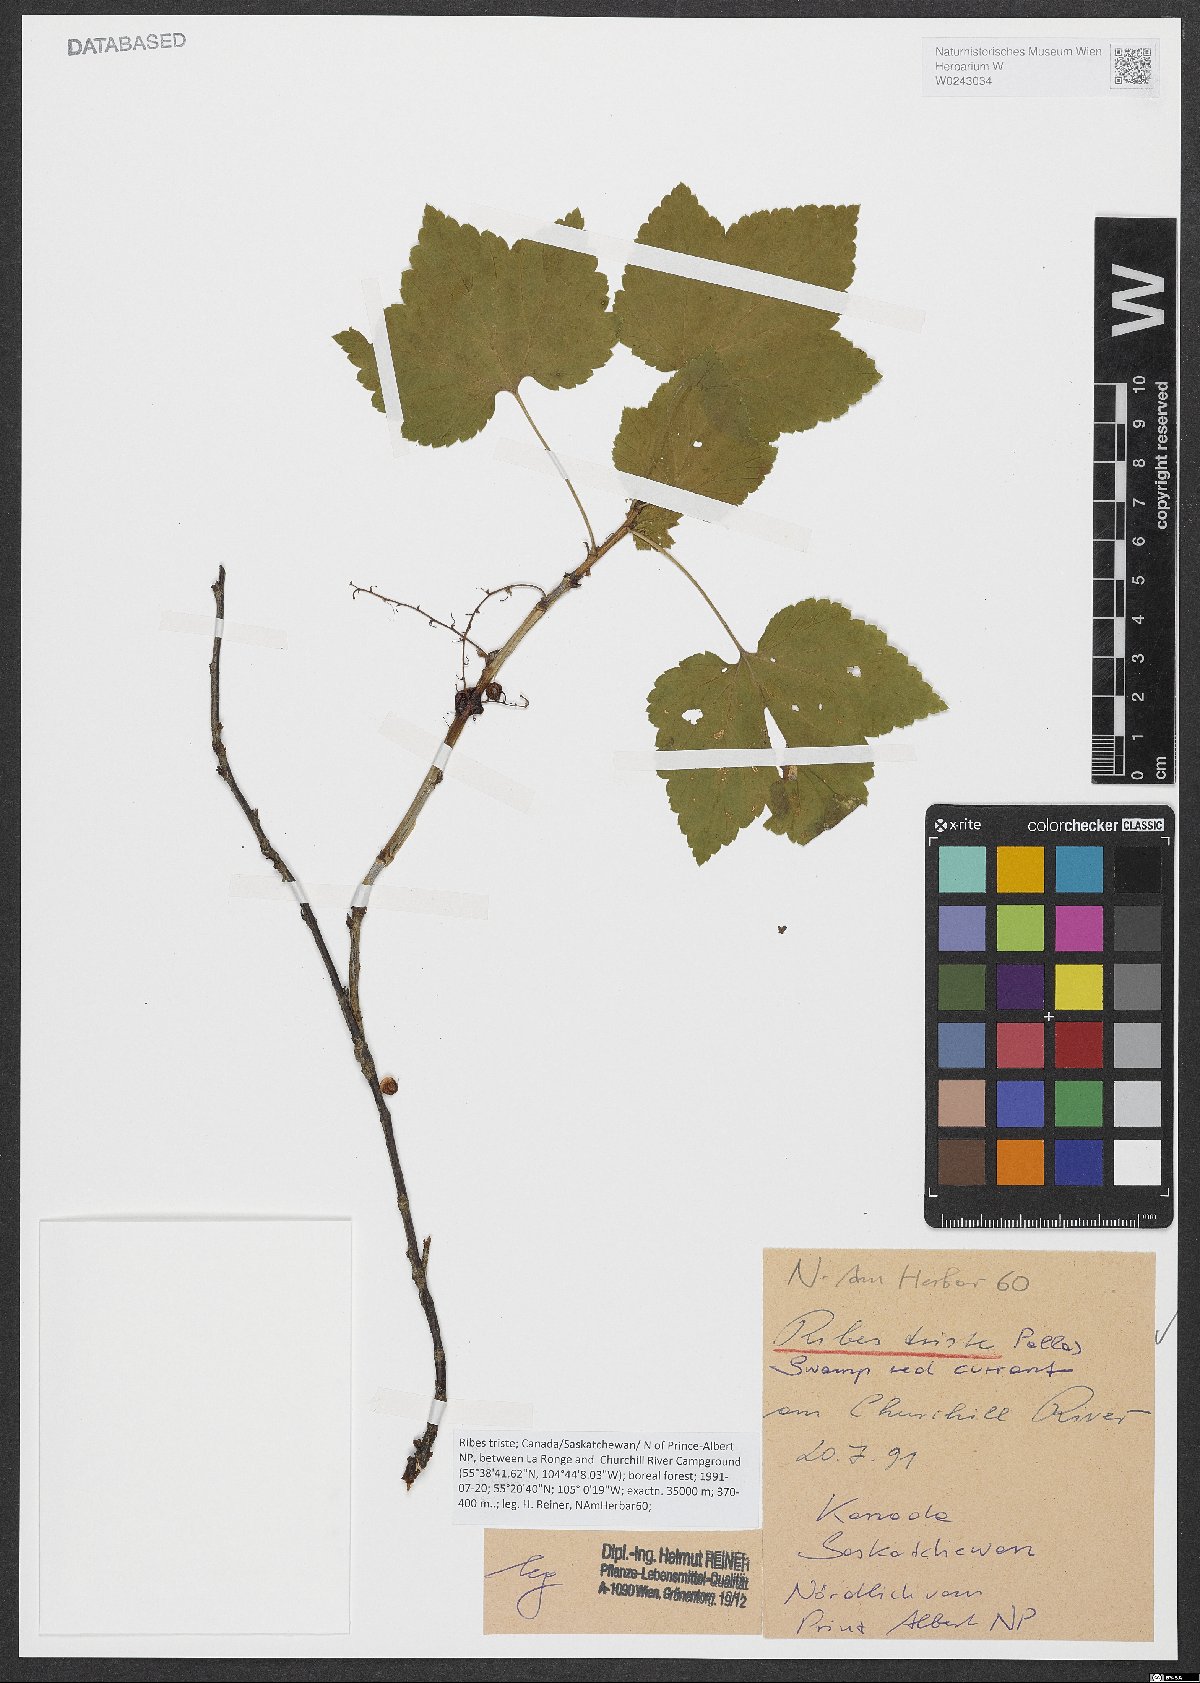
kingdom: Plantae
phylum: Tracheophyta
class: Magnoliopsida
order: Saxifragales
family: Grossulariaceae
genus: Ribes
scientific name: Ribes triste
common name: Swamp red currant
